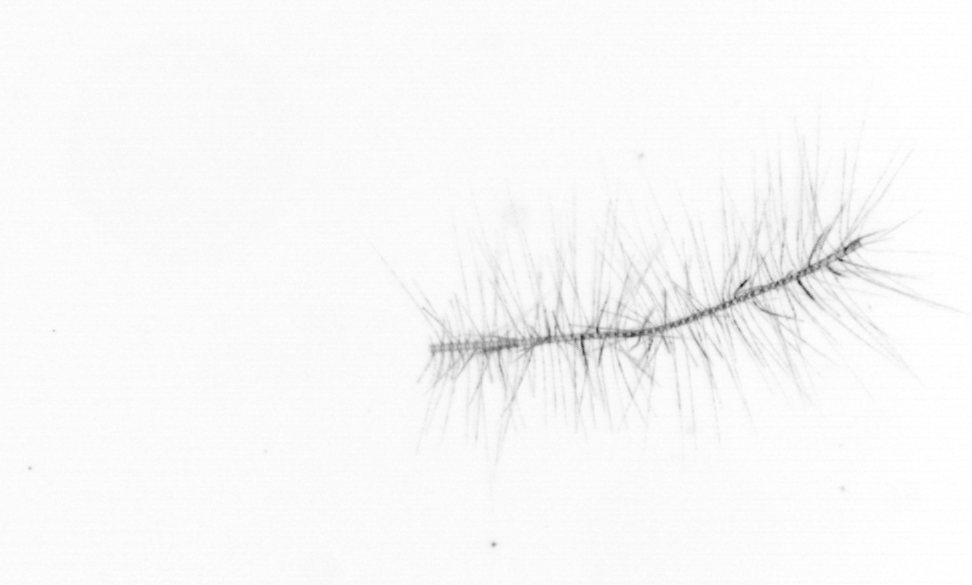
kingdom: Chromista
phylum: Ochrophyta
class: Bacillariophyceae
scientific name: Bacillariophyceae
